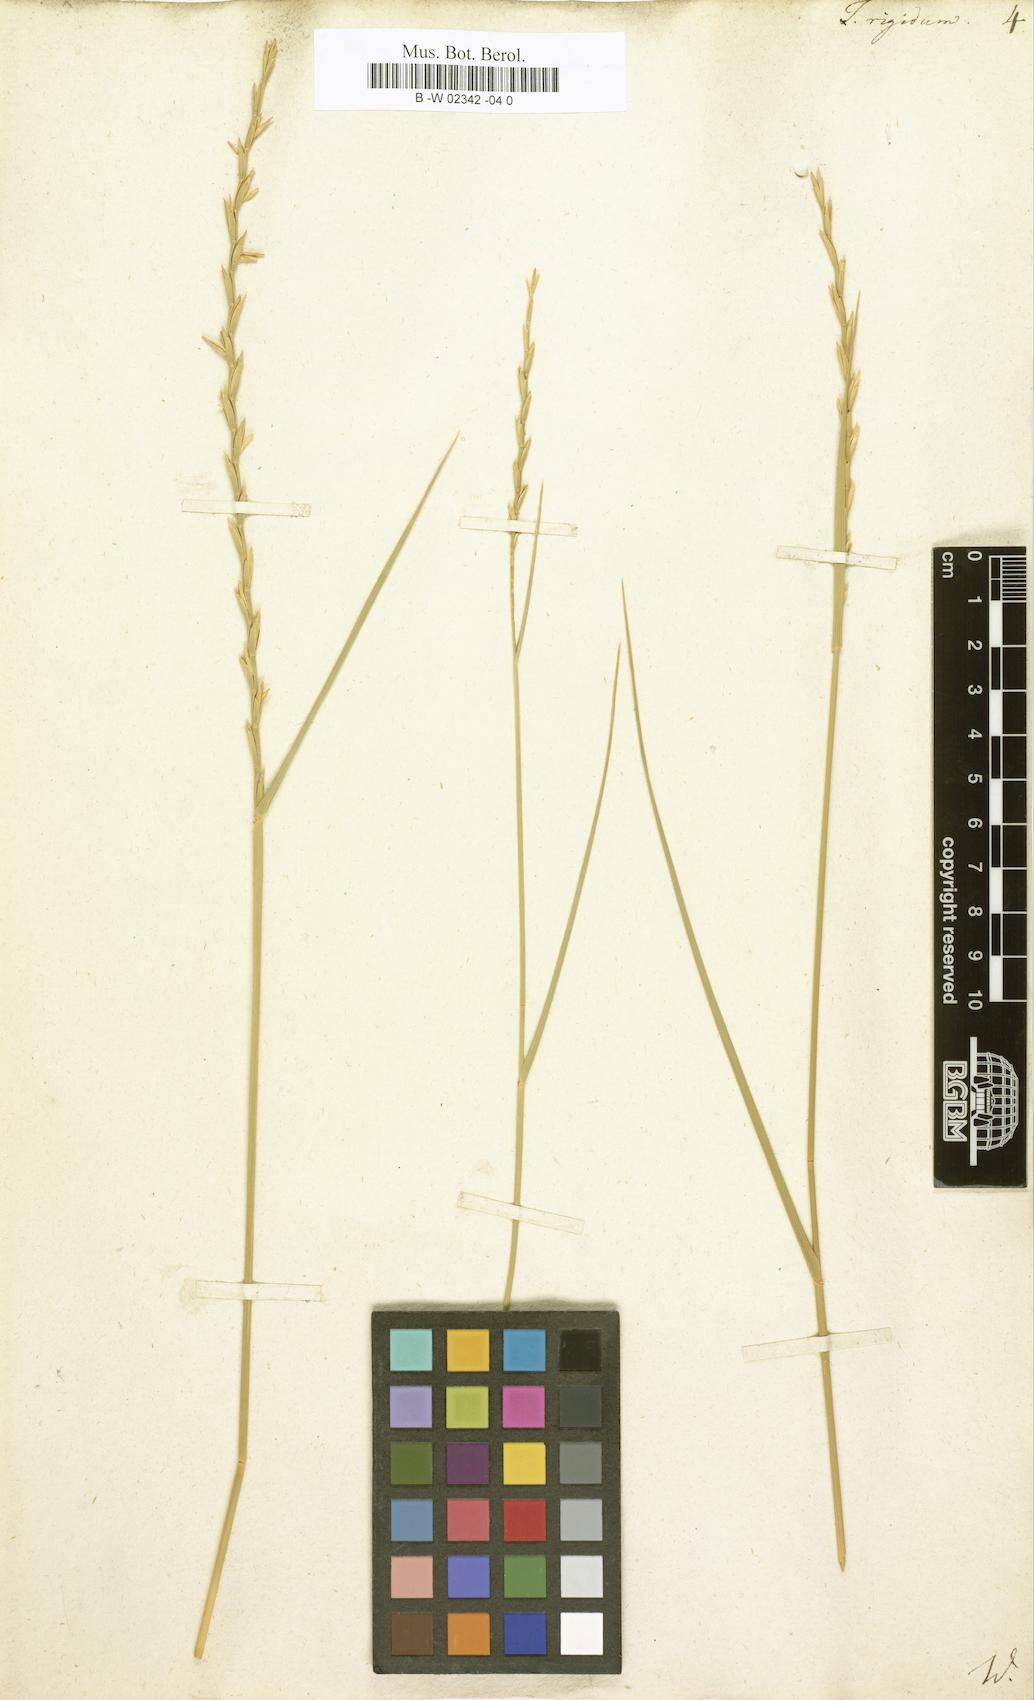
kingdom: Plantae
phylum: Tracheophyta
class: Liliopsida
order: Poales
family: Poaceae
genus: Thinopyrum
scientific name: Thinopyrum
